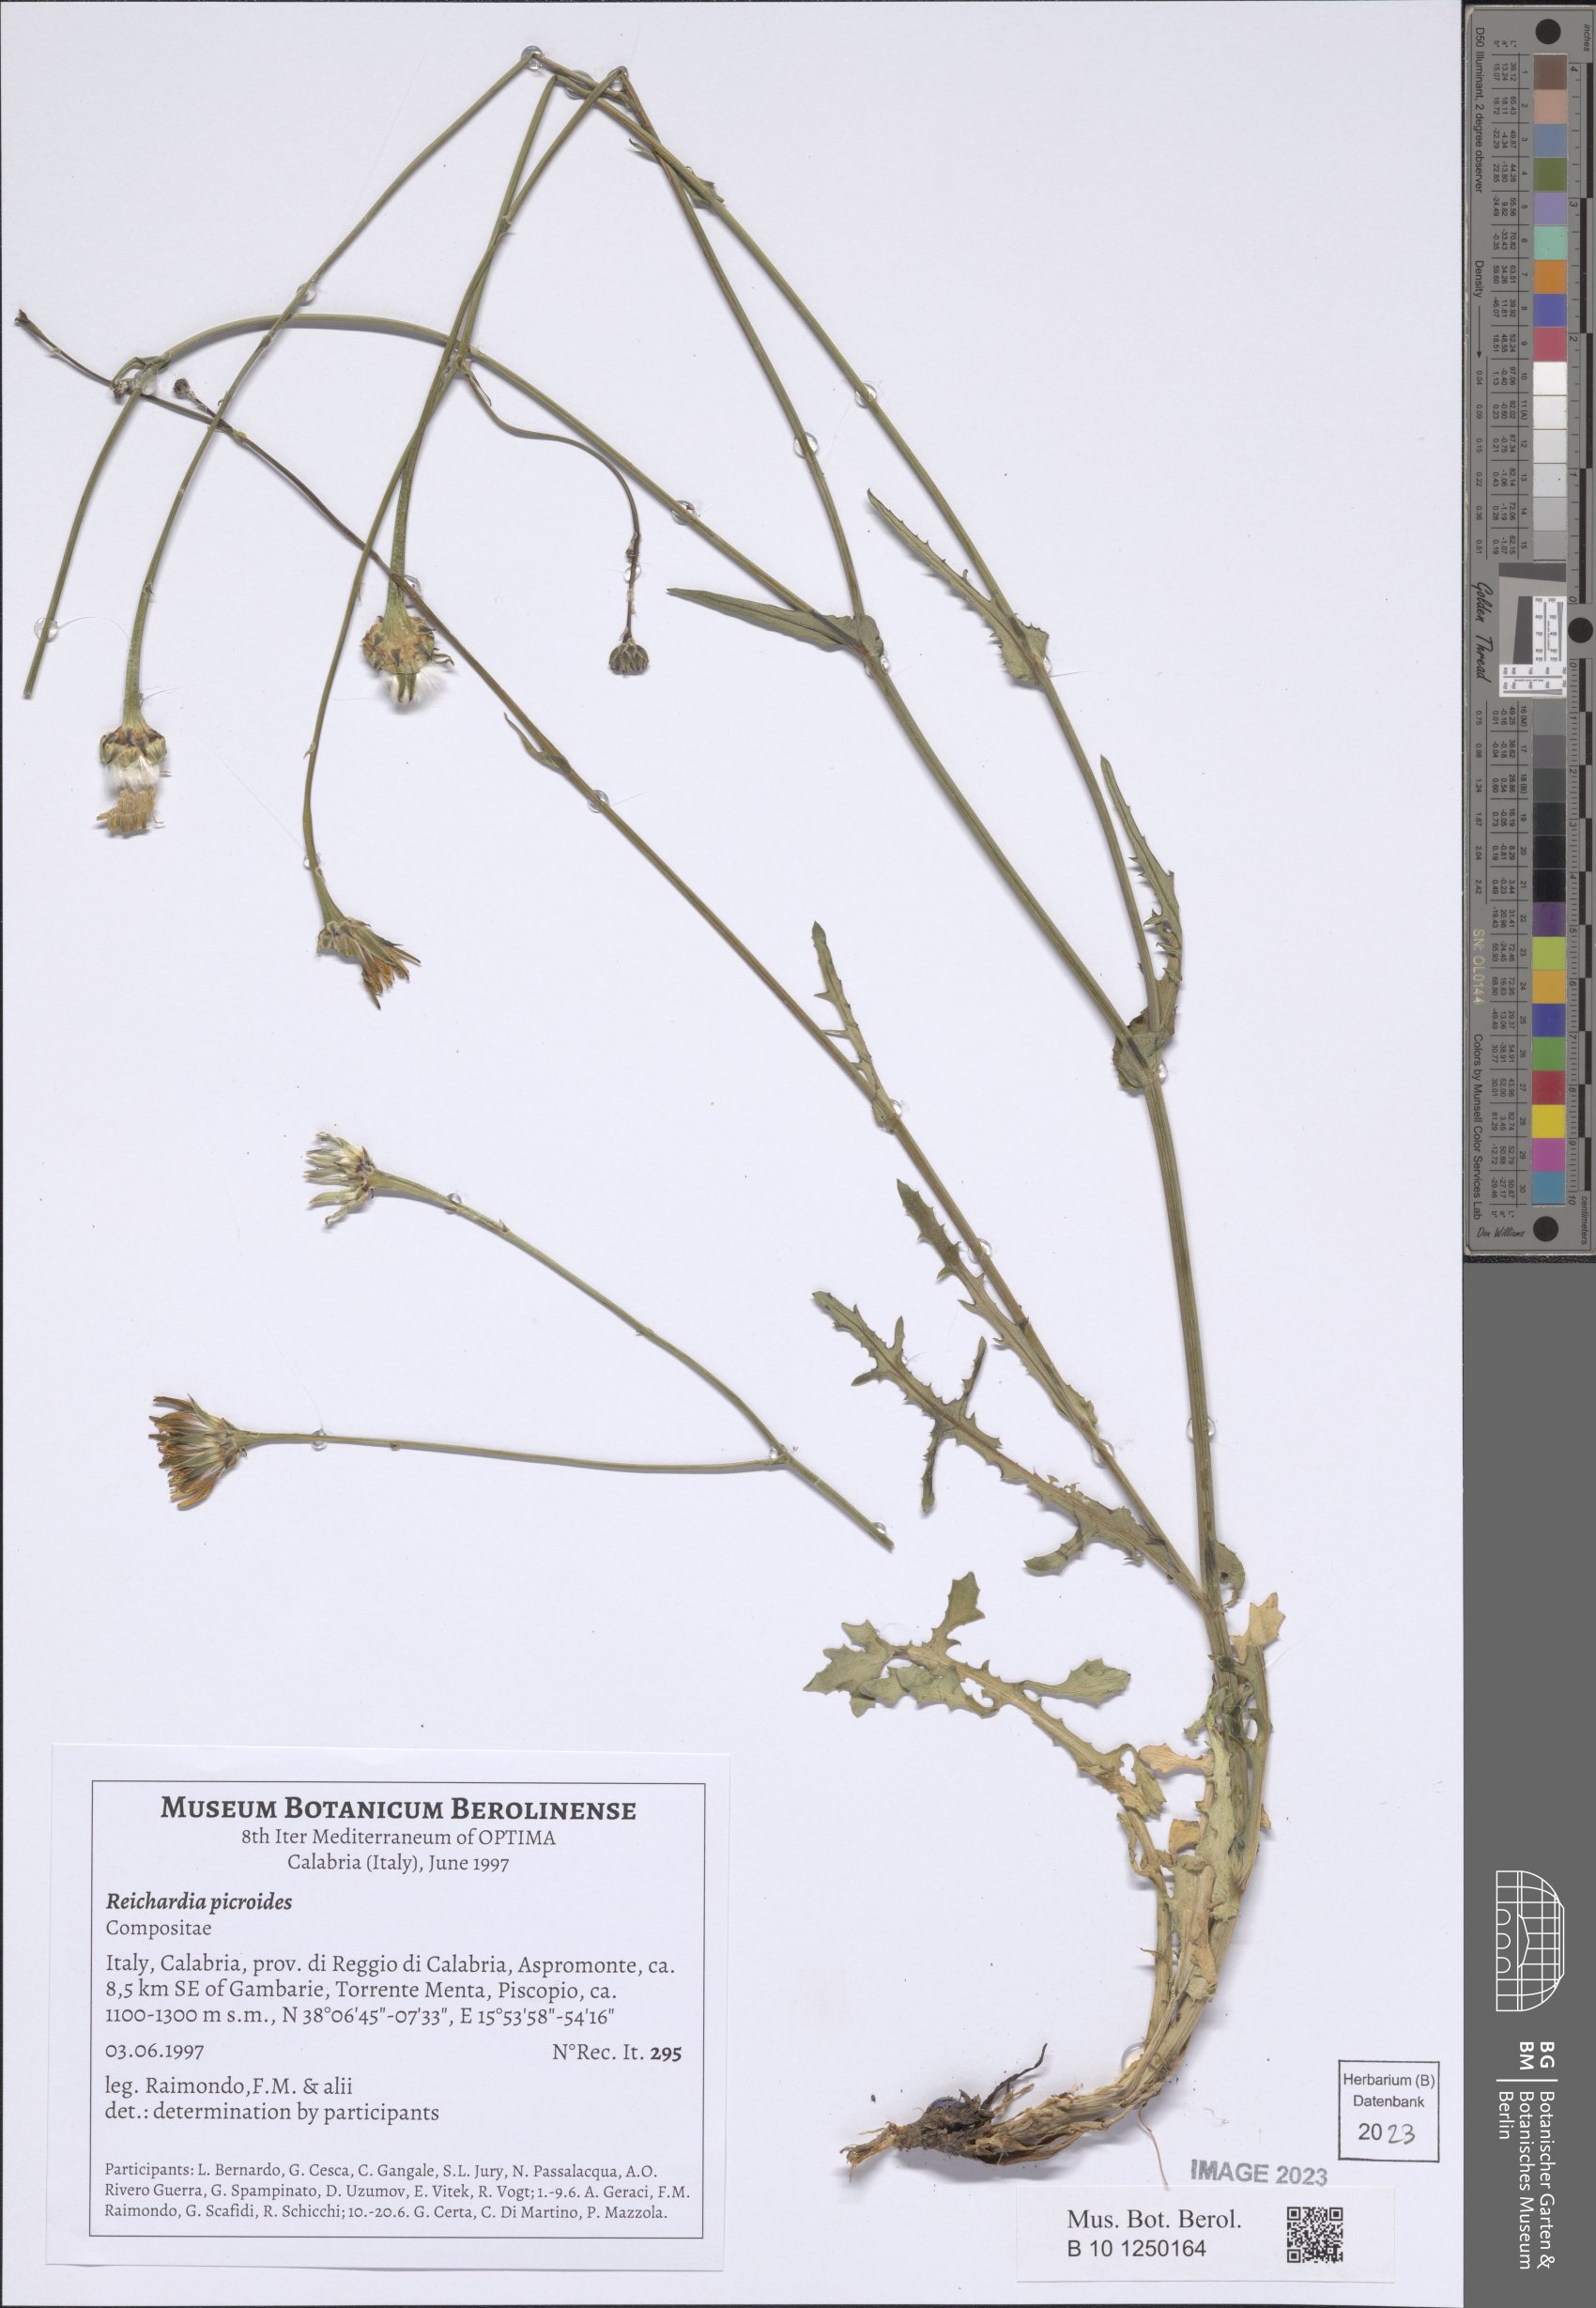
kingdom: Plantae
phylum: Tracheophyta
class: Magnoliopsida
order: Asterales
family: Asteraceae
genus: Reichardia
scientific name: Reichardia picroides
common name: Common brighteyes
